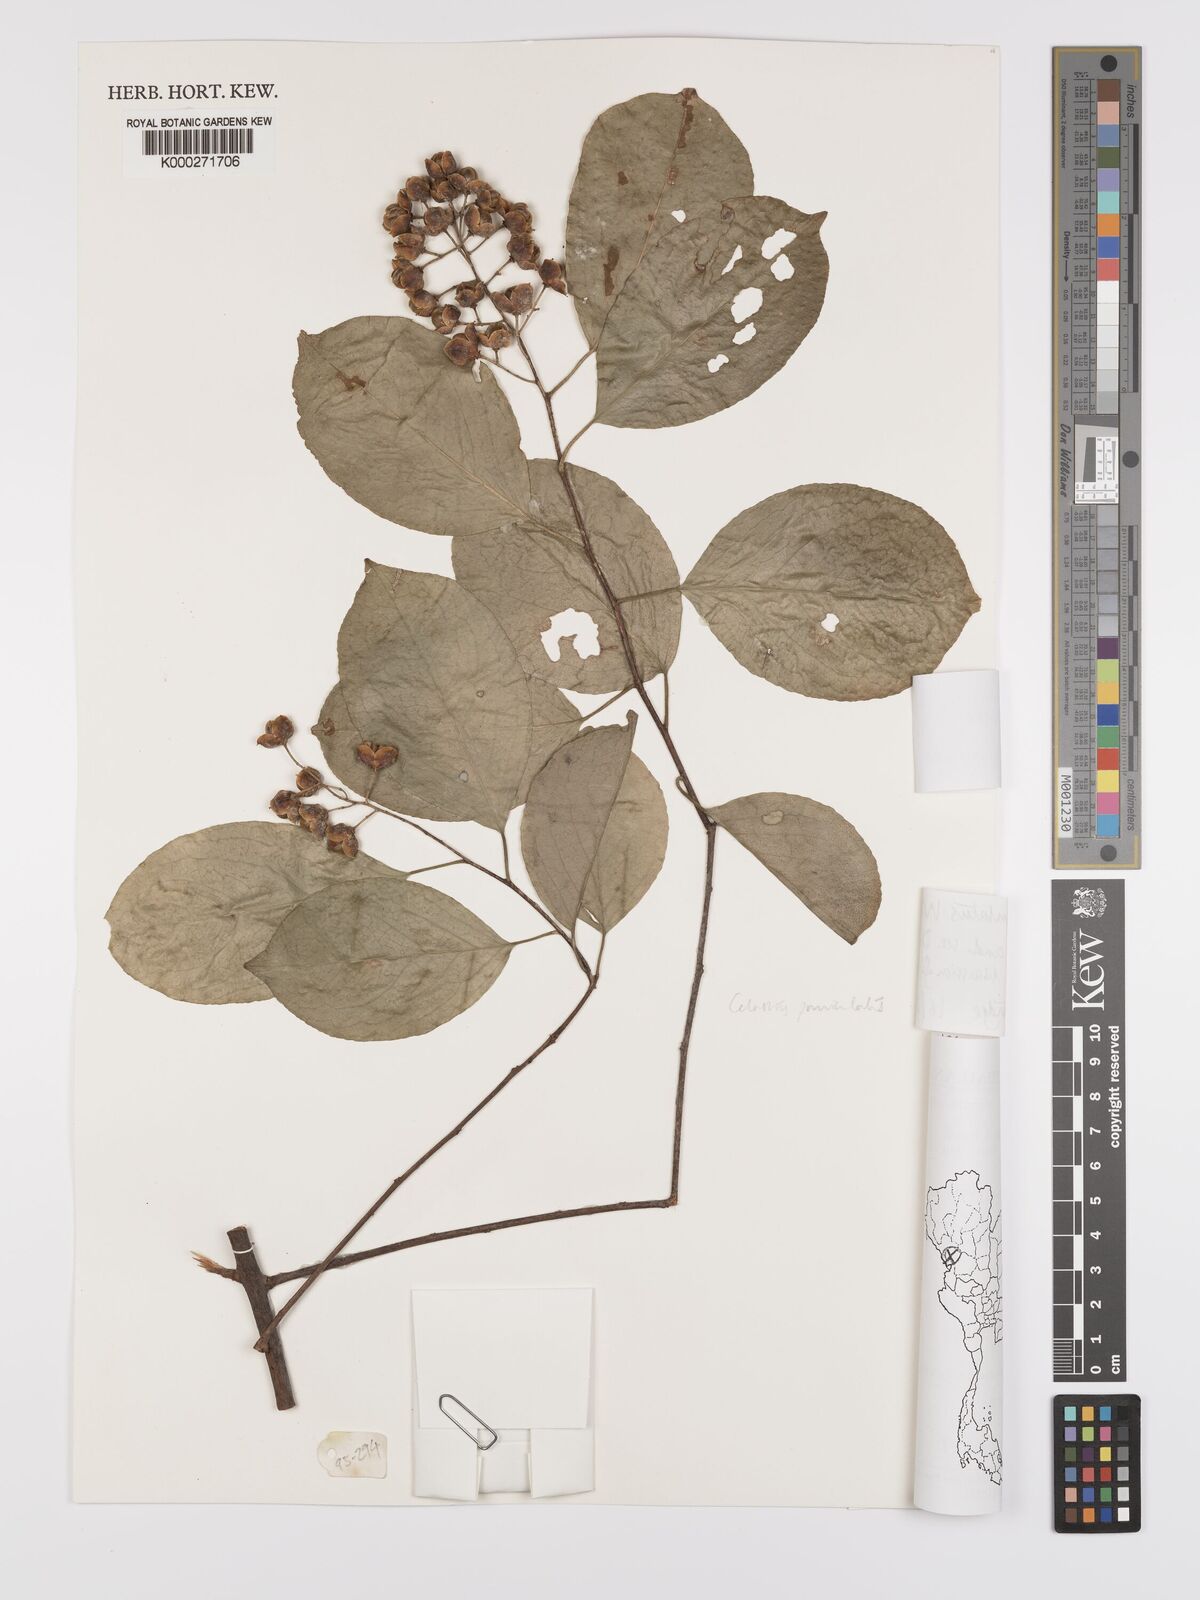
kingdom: Plantae
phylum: Tracheophyta
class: Magnoliopsida
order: Celastrales
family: Celastraceae
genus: Celastrus
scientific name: Celastrus paniculatus
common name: Oriental bittersweet; staff vine
